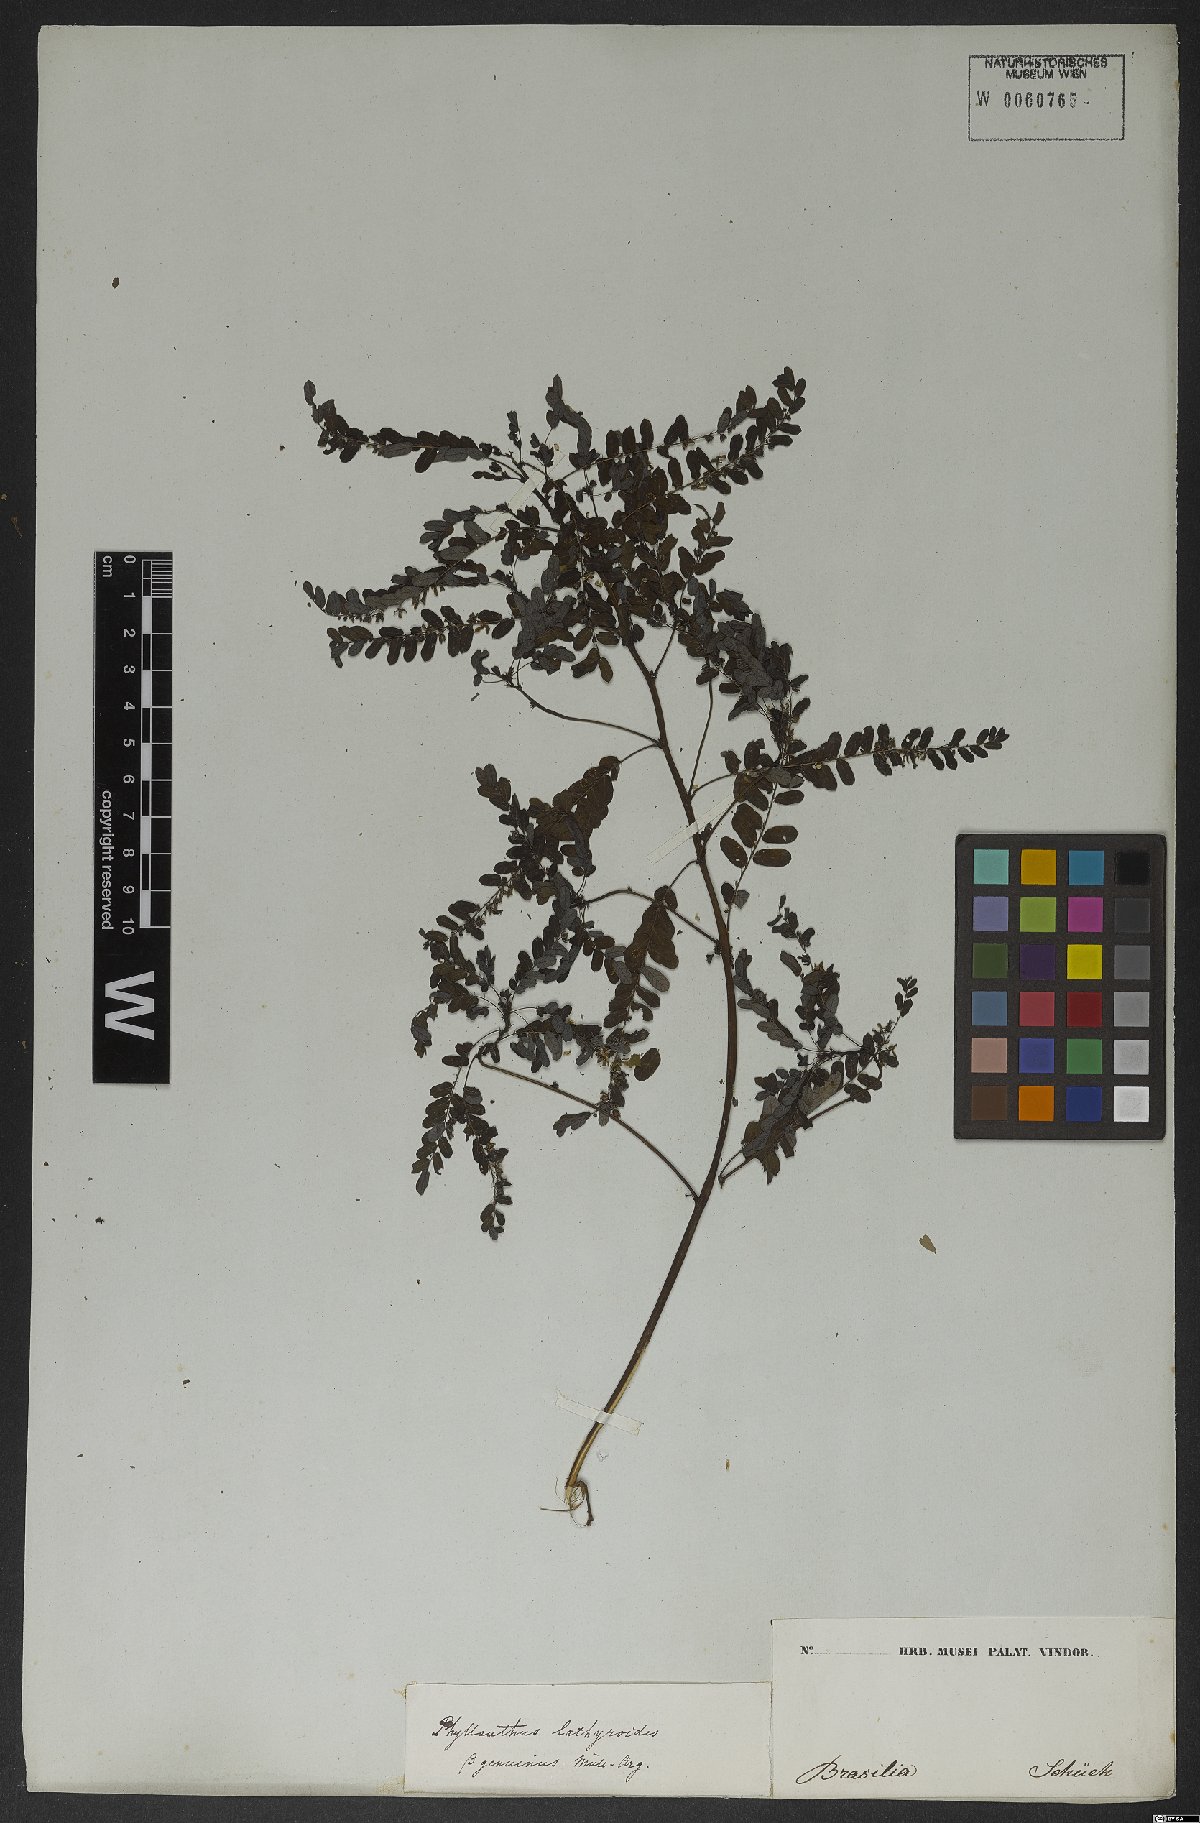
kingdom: Plantae
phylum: Tracheophyta
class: Magnoliopsida
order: Malpighiales
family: Phyllanthaceae
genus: Phyllanthus
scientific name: Phyllanthus niruri
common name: Niruri
